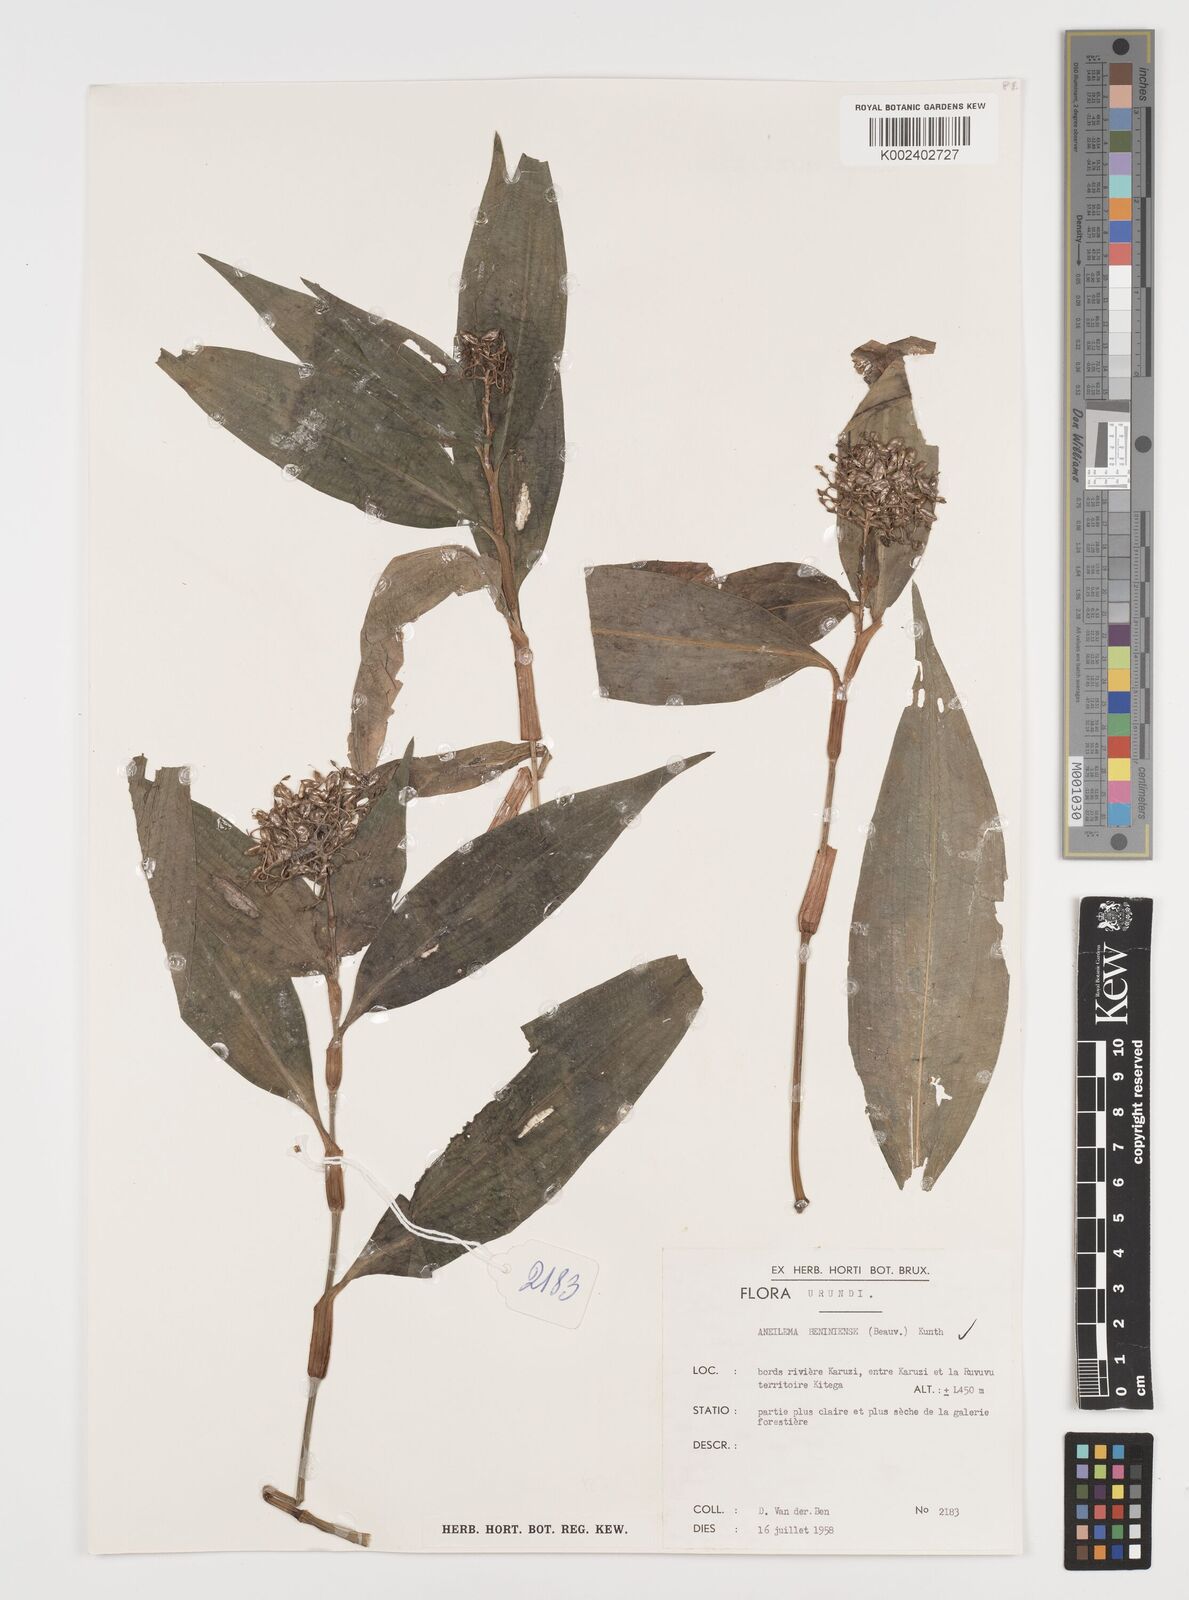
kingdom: Plantae
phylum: Tracheophyta
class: Liliopsida
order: Commelinales
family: Commelinaceae
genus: Aneilema
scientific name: Aneilema beniniense
